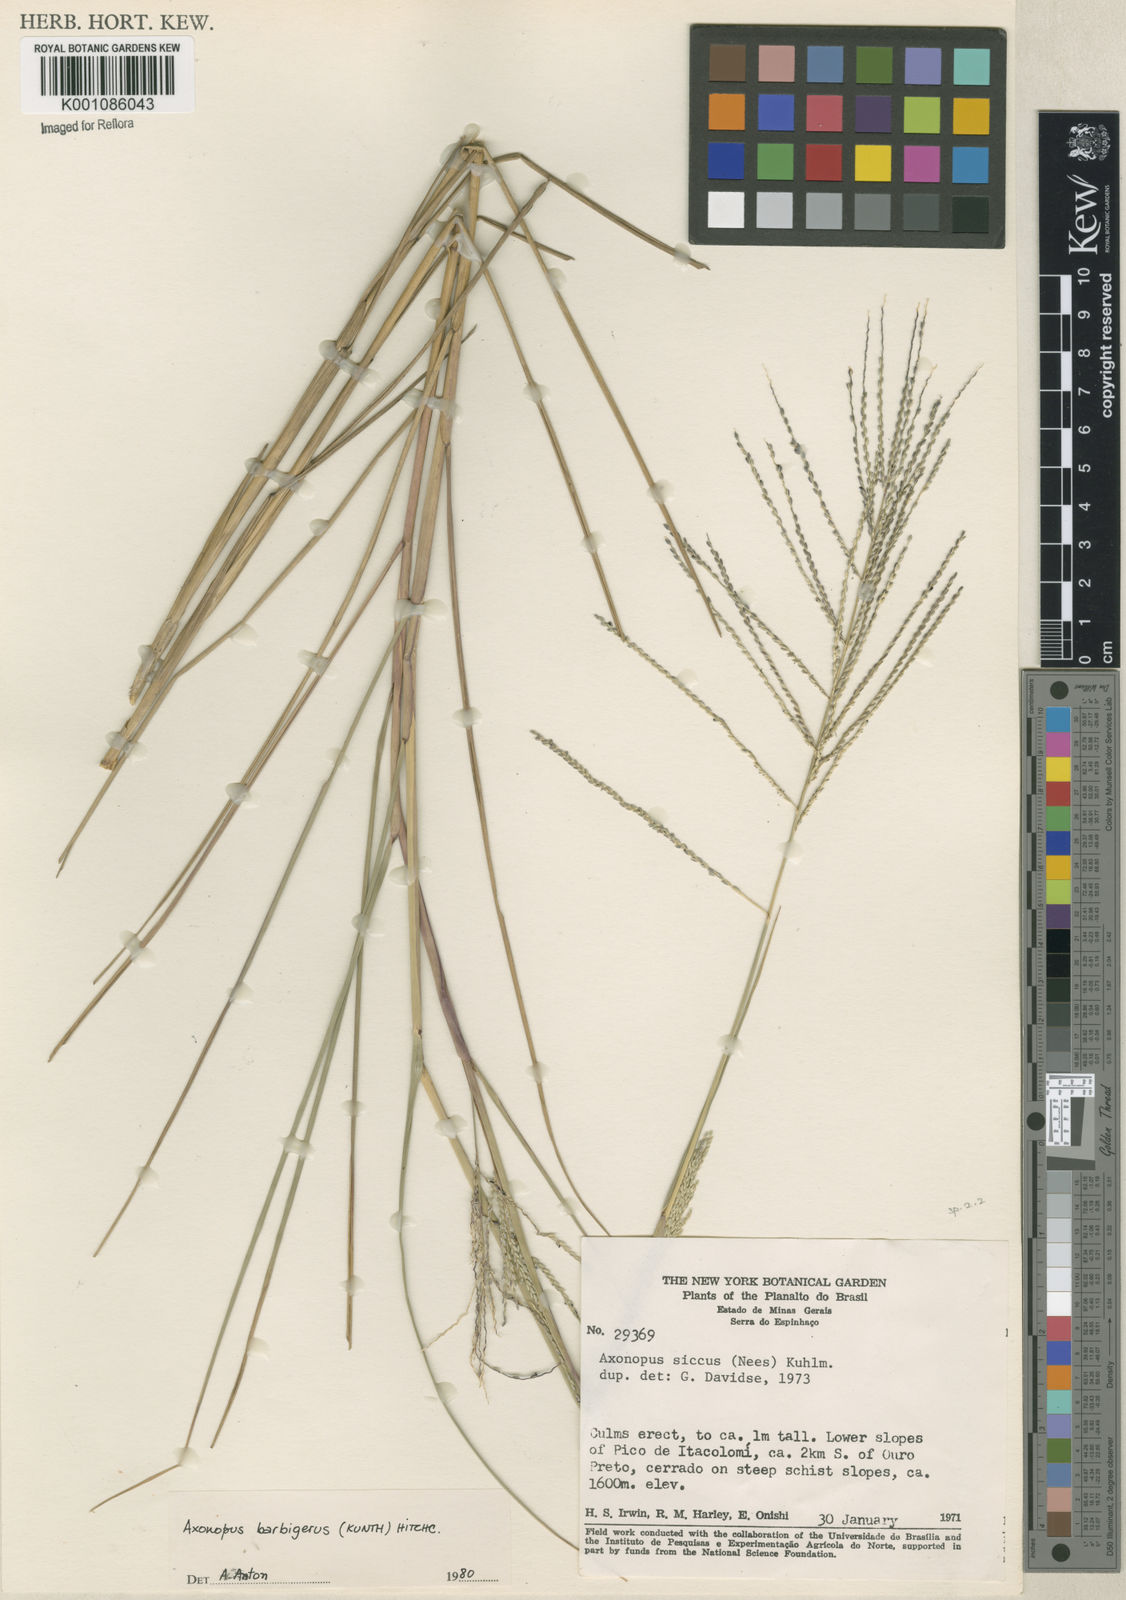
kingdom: Plantae
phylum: Tracheophyta
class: Liliopsida
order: Poales
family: Poaceae
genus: Axonopus
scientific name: Axonopus siccus
